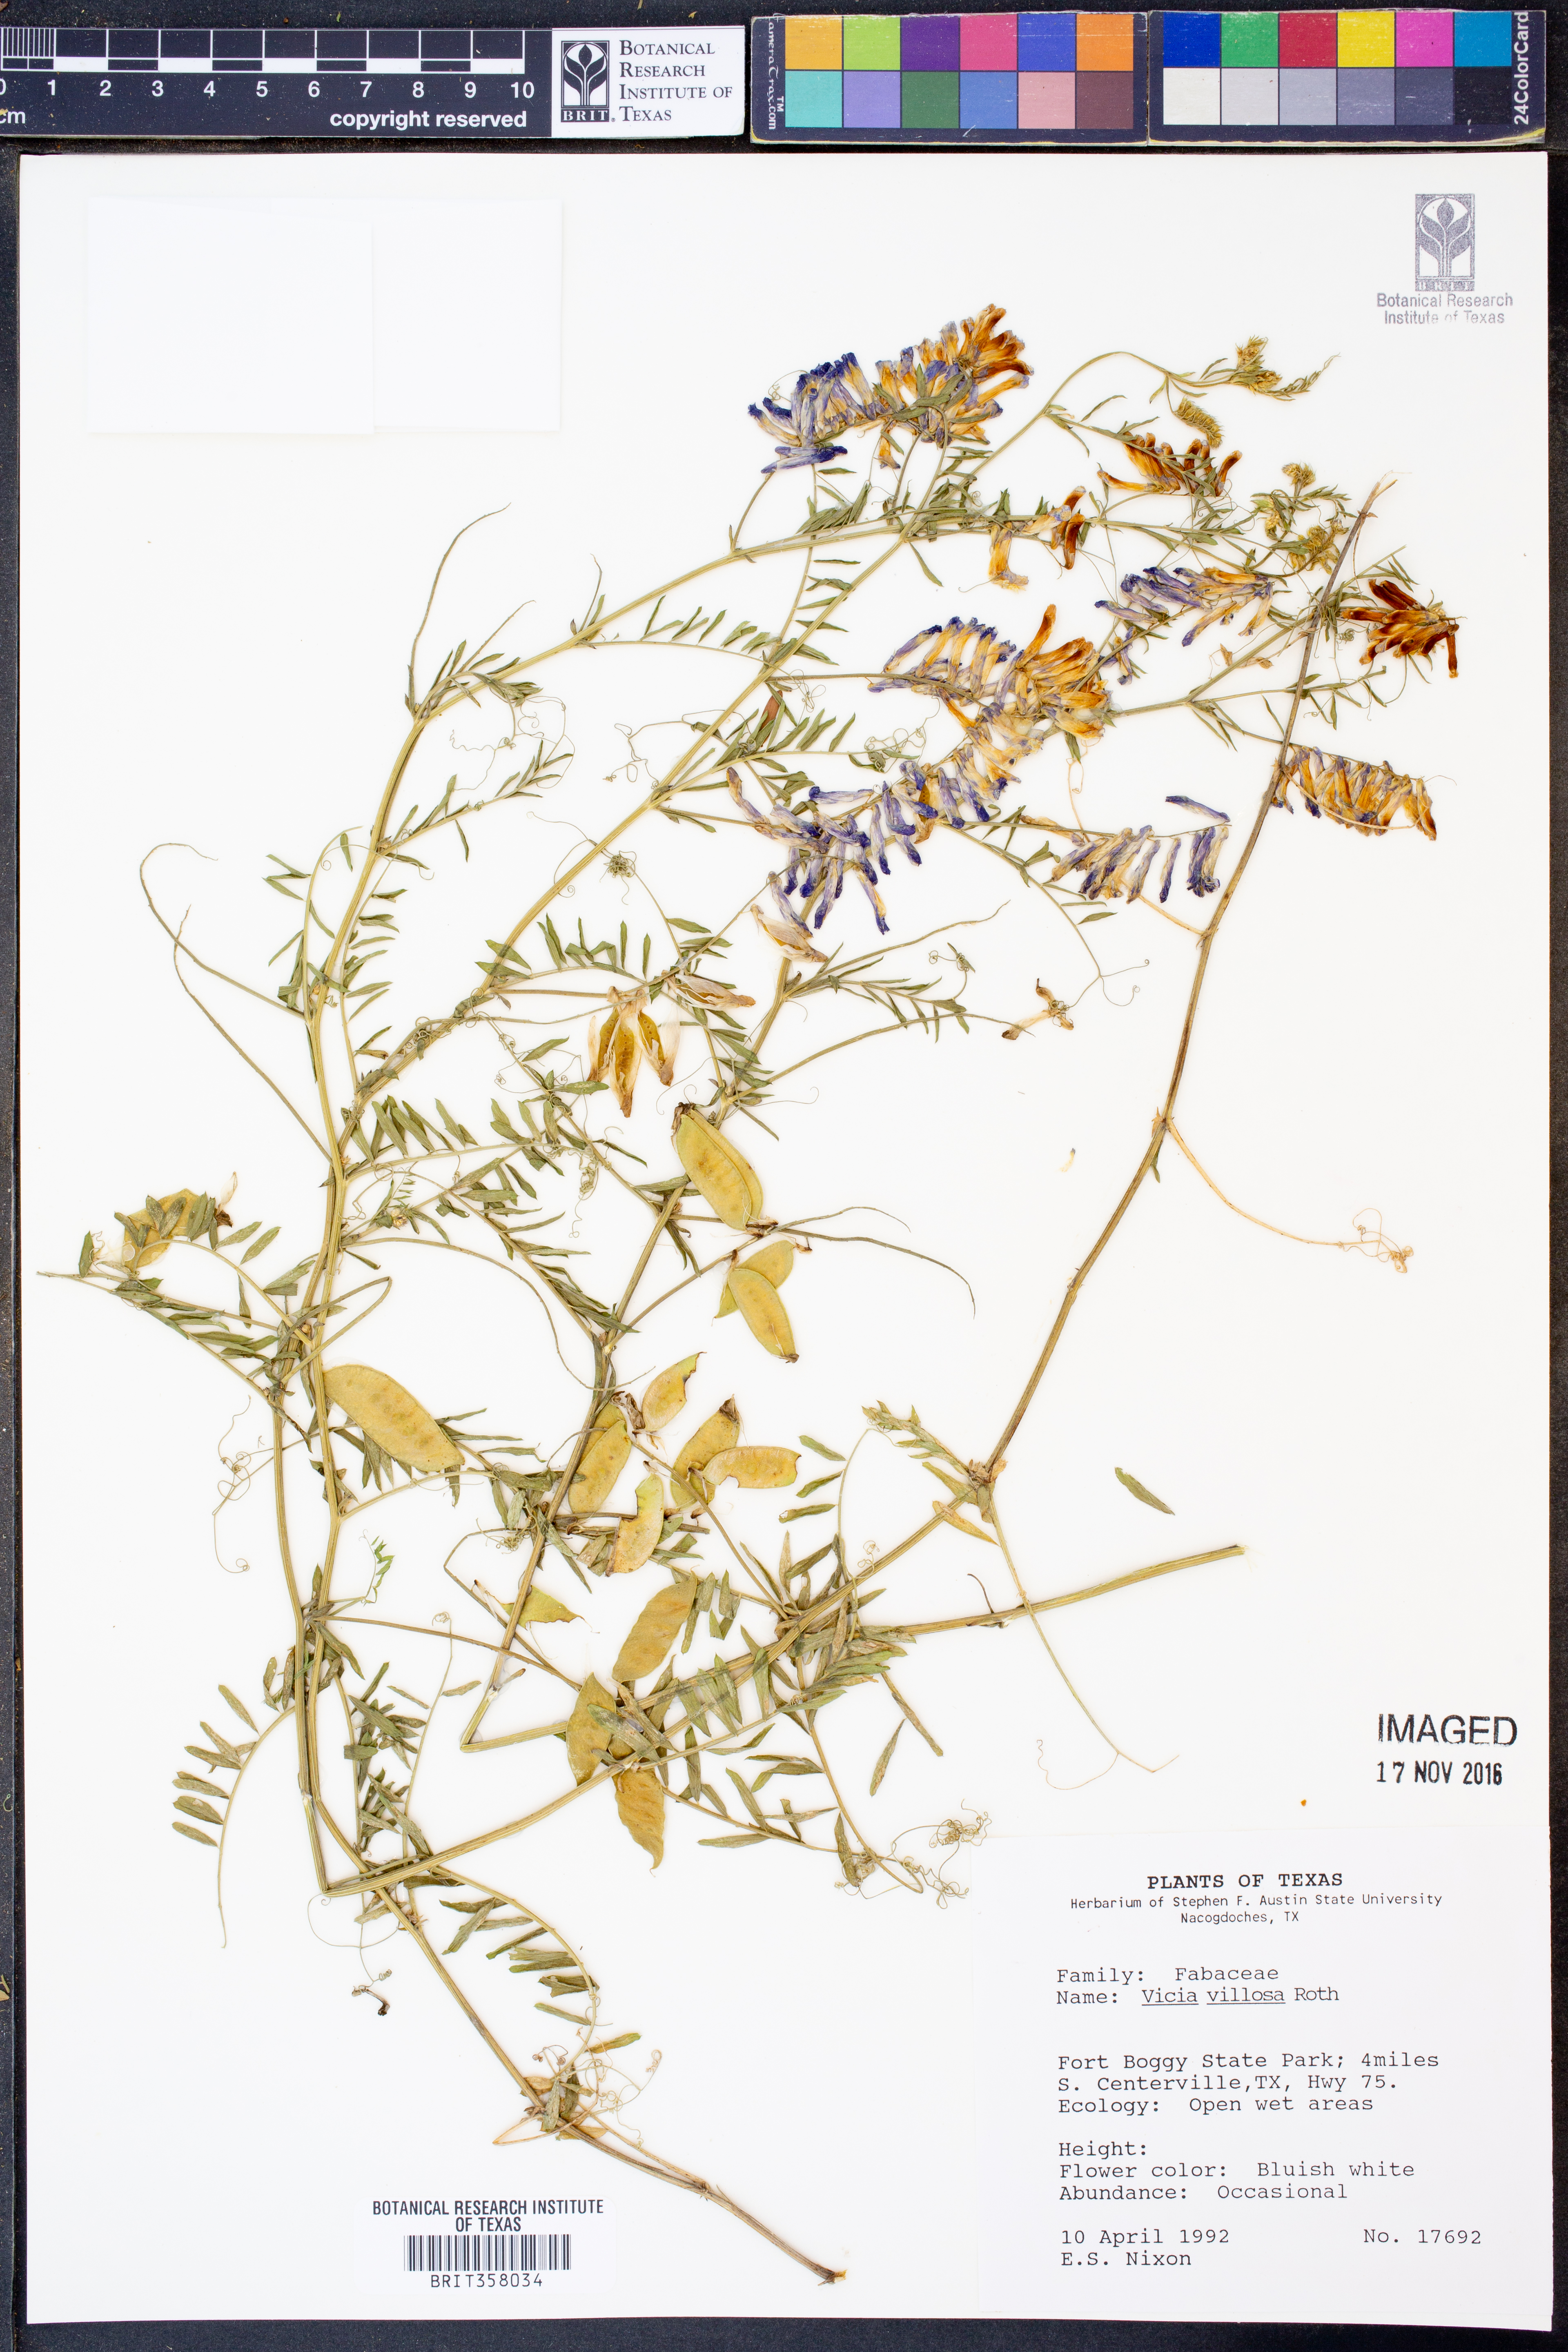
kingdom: Plantae
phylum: Tracheophyta
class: Magnoliopsida
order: Fabales
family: Fabaceae
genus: Vicia
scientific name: Vicia villosa
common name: Fodder vetch
